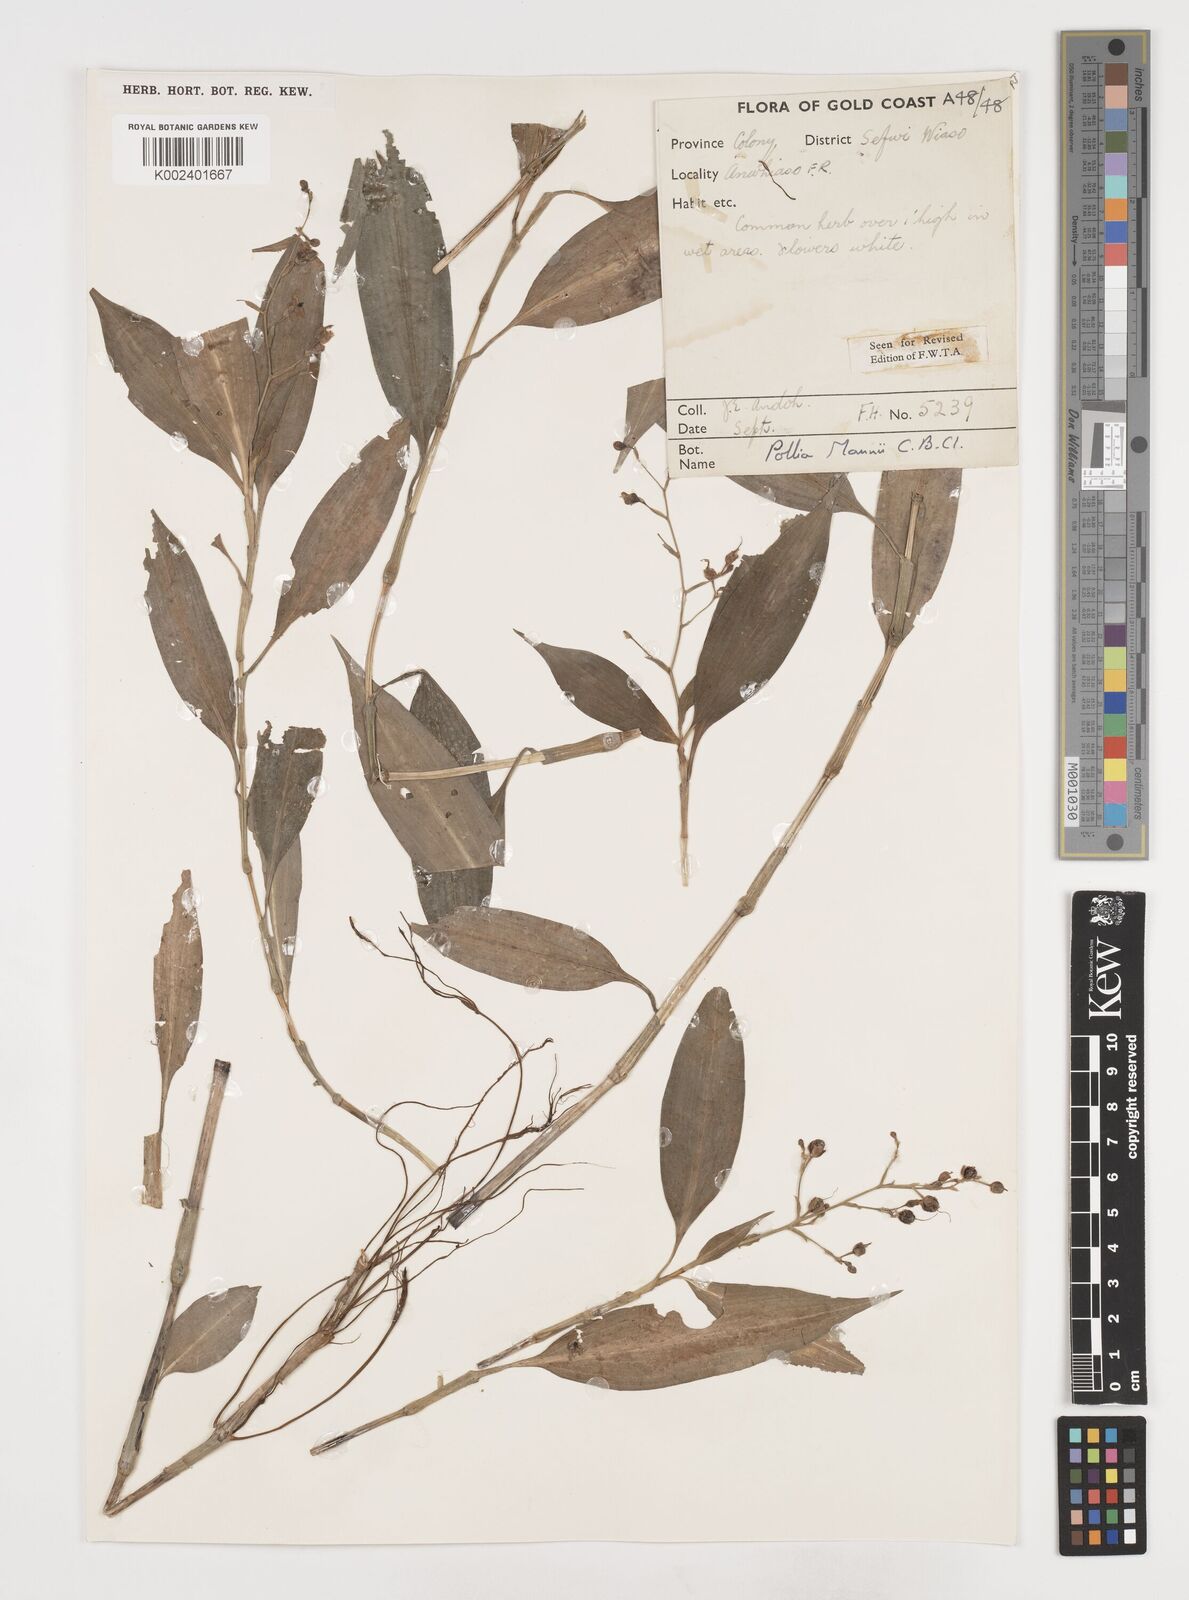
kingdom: Plantae
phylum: Tracheophyta
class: Liliopsida
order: Commelinales
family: Commelinaceae
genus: Pollia
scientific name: Pollia mannii
